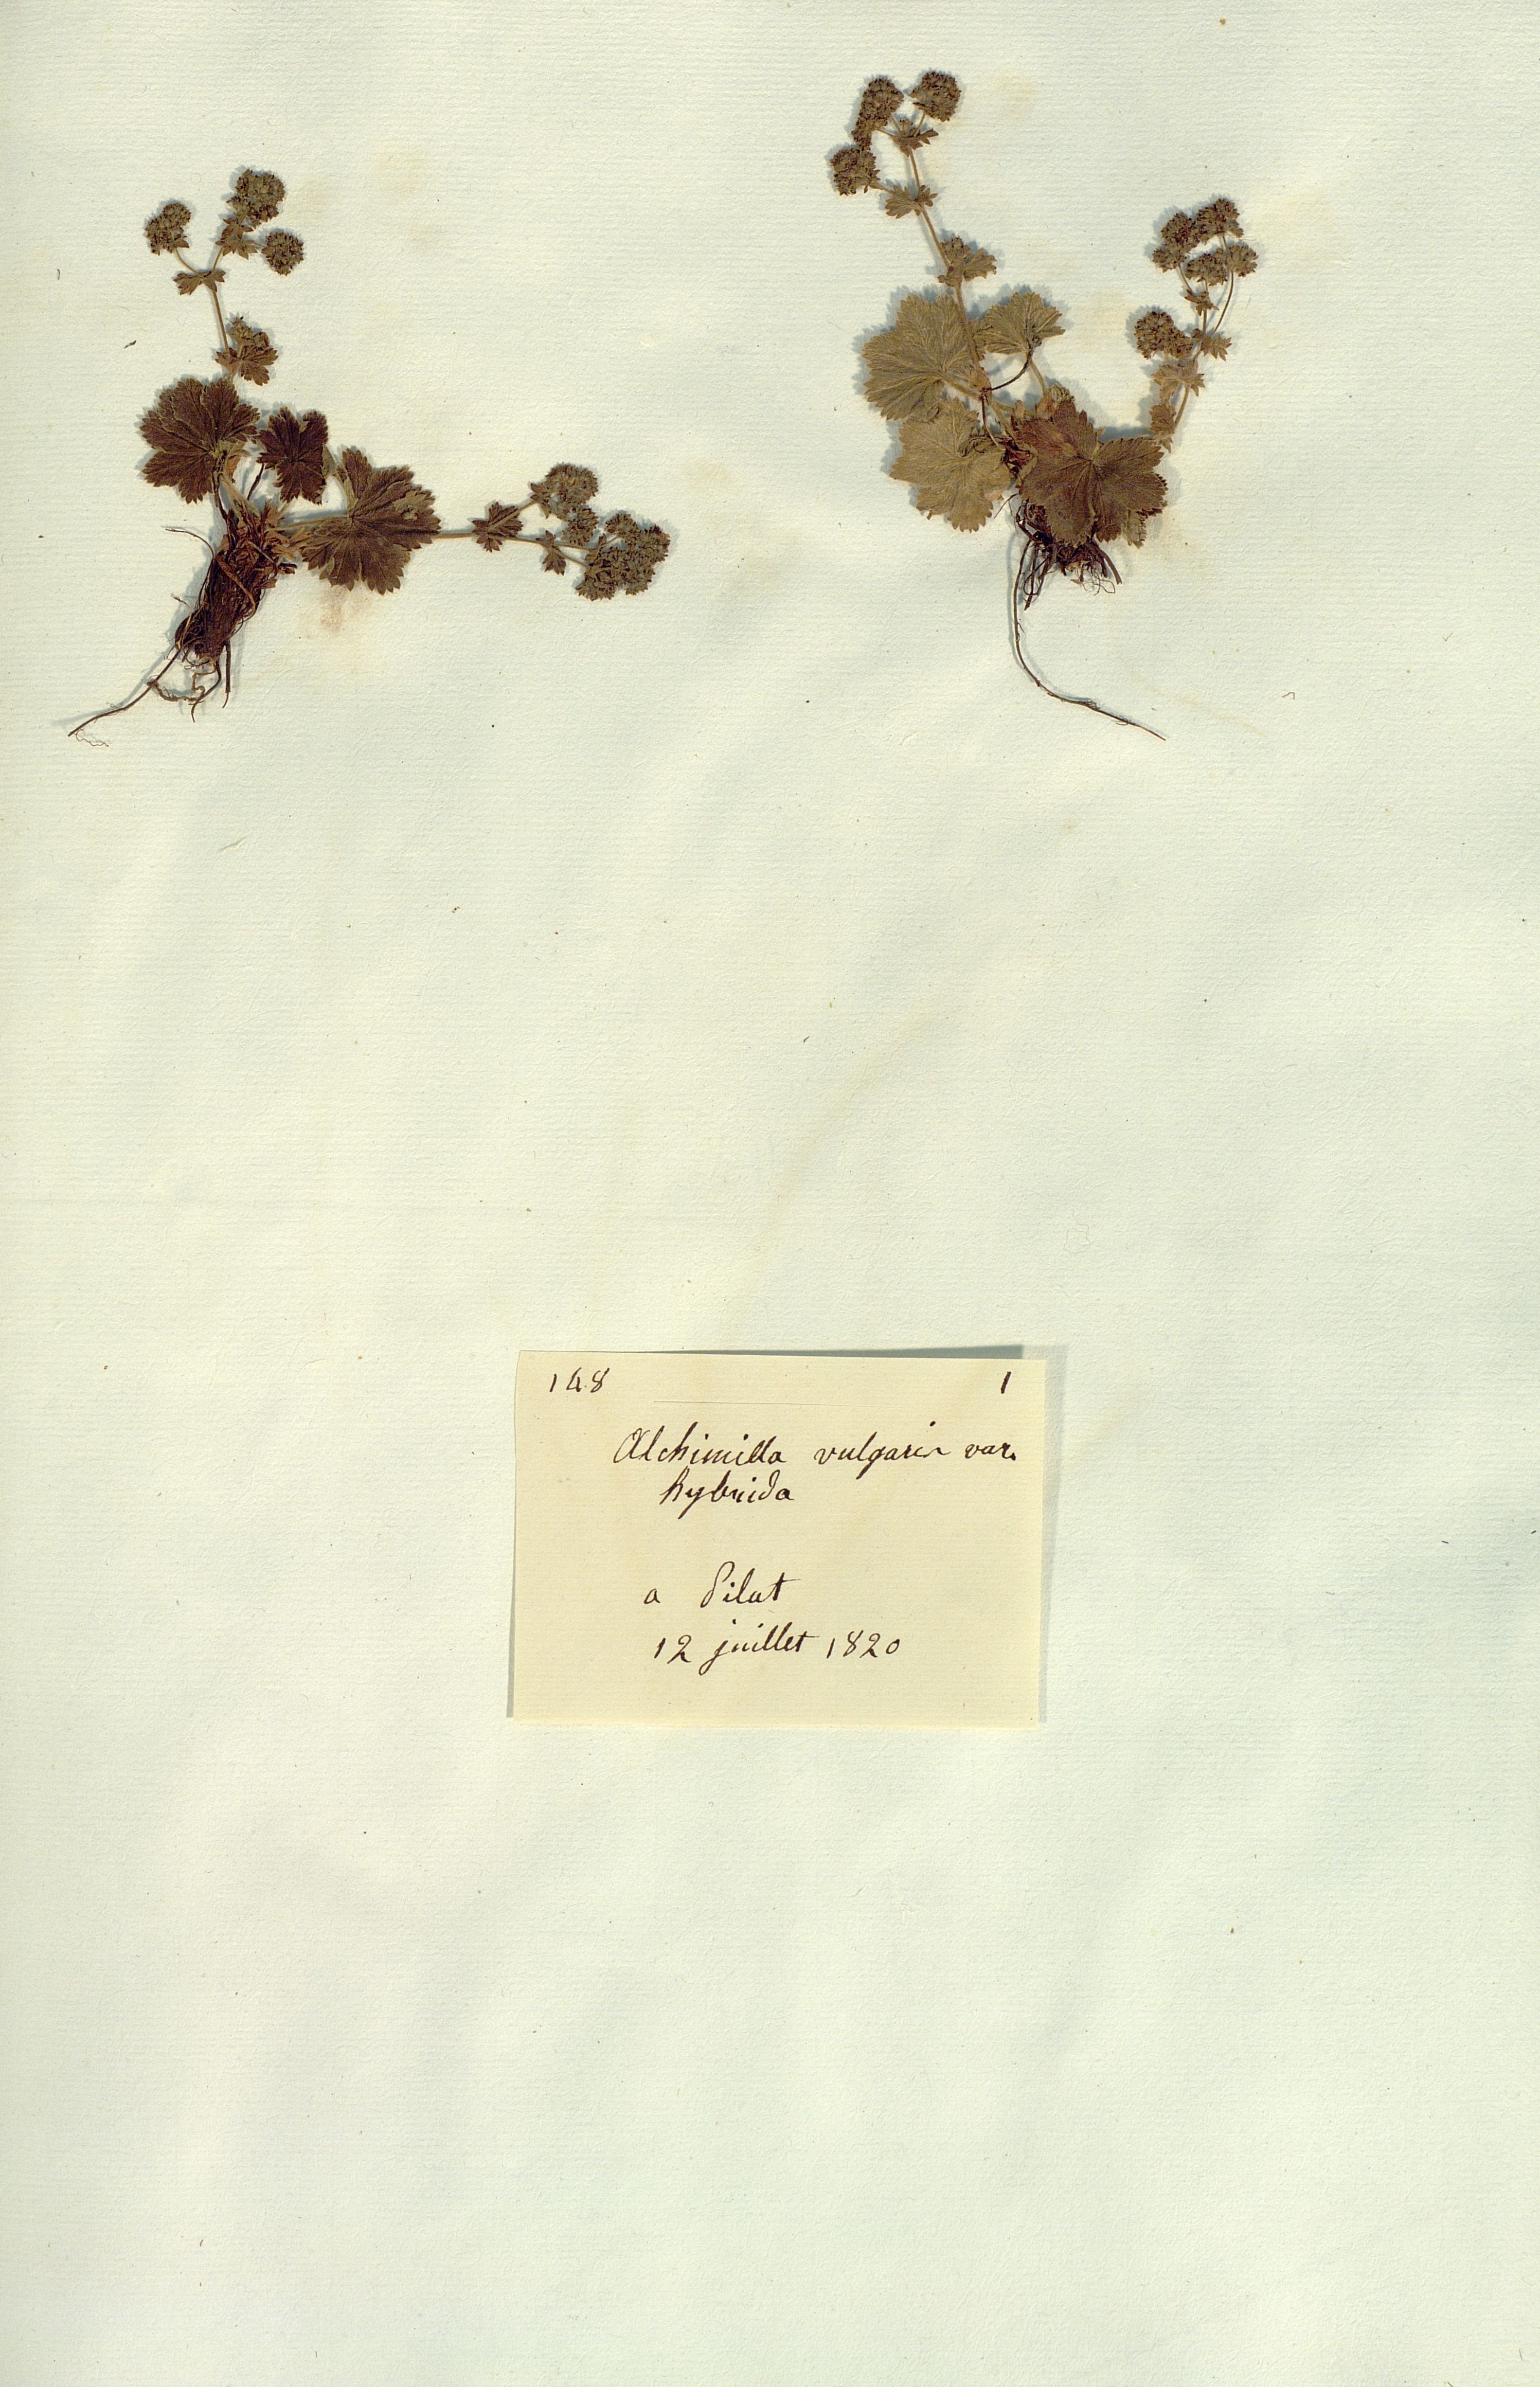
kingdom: Plantae
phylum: Tracheophyta
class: Magnoliopsida
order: Rosales
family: Rosaceae
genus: Alchemilla
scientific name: Alchemilla vulgaris
